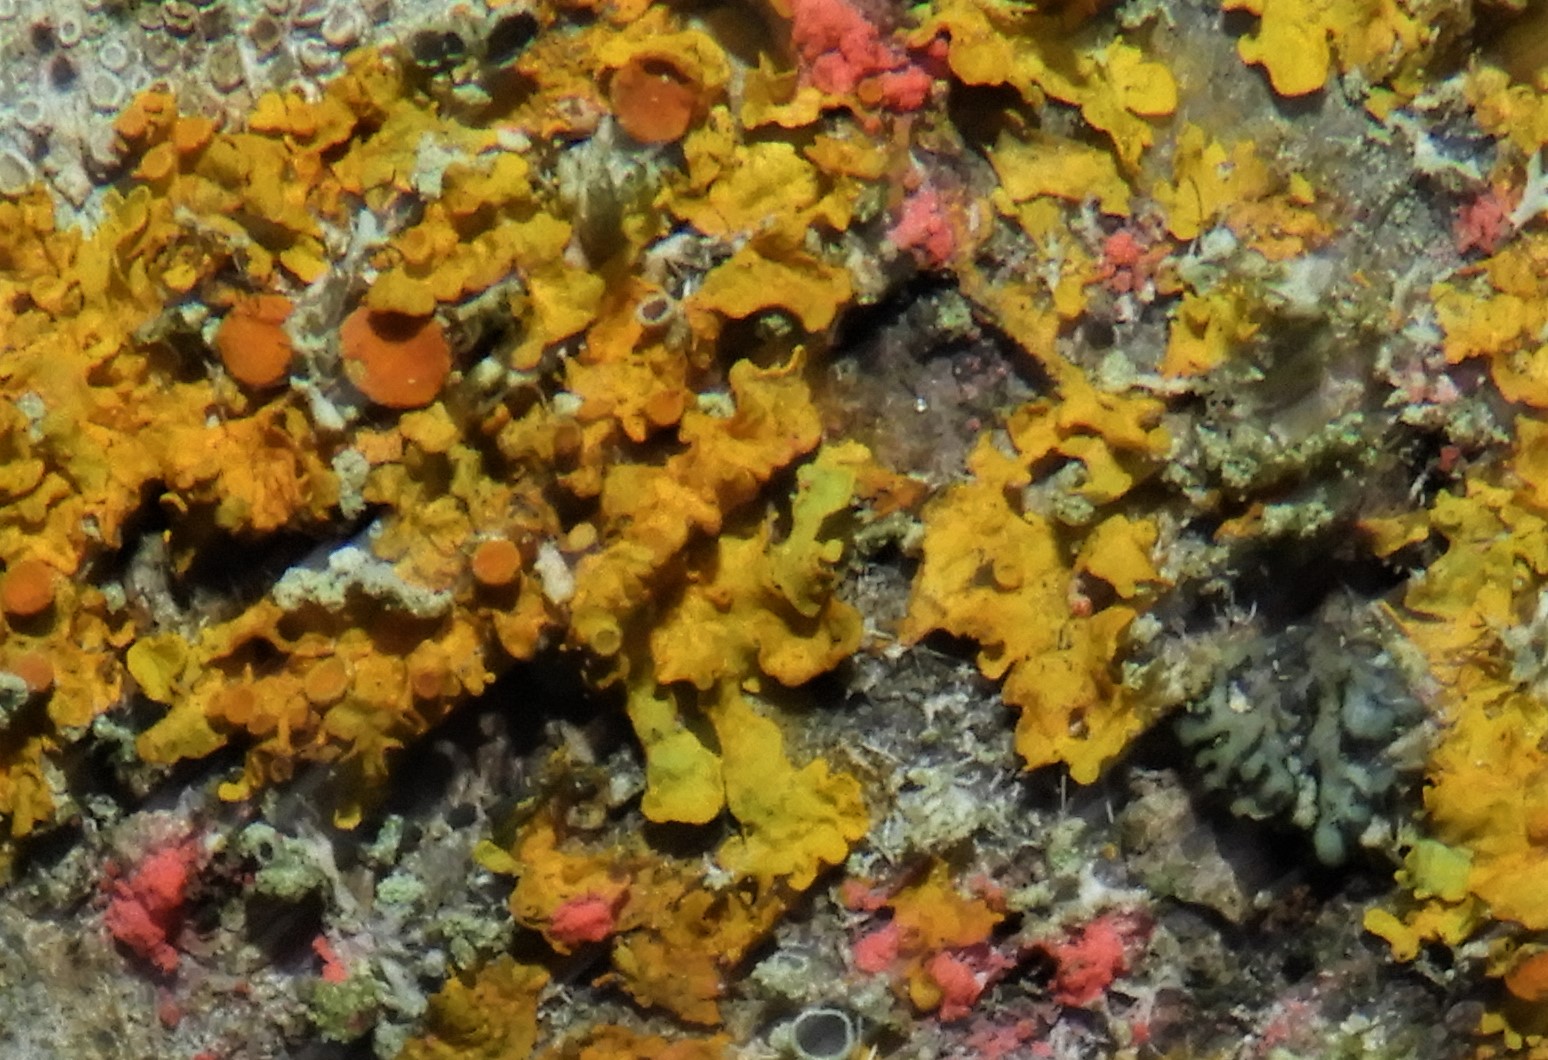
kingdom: Fungi
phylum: Ascomycota
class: Sordariomycetes
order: Hypocreales
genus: Illosporiopsis
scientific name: Illosporiopsis christiansenii
